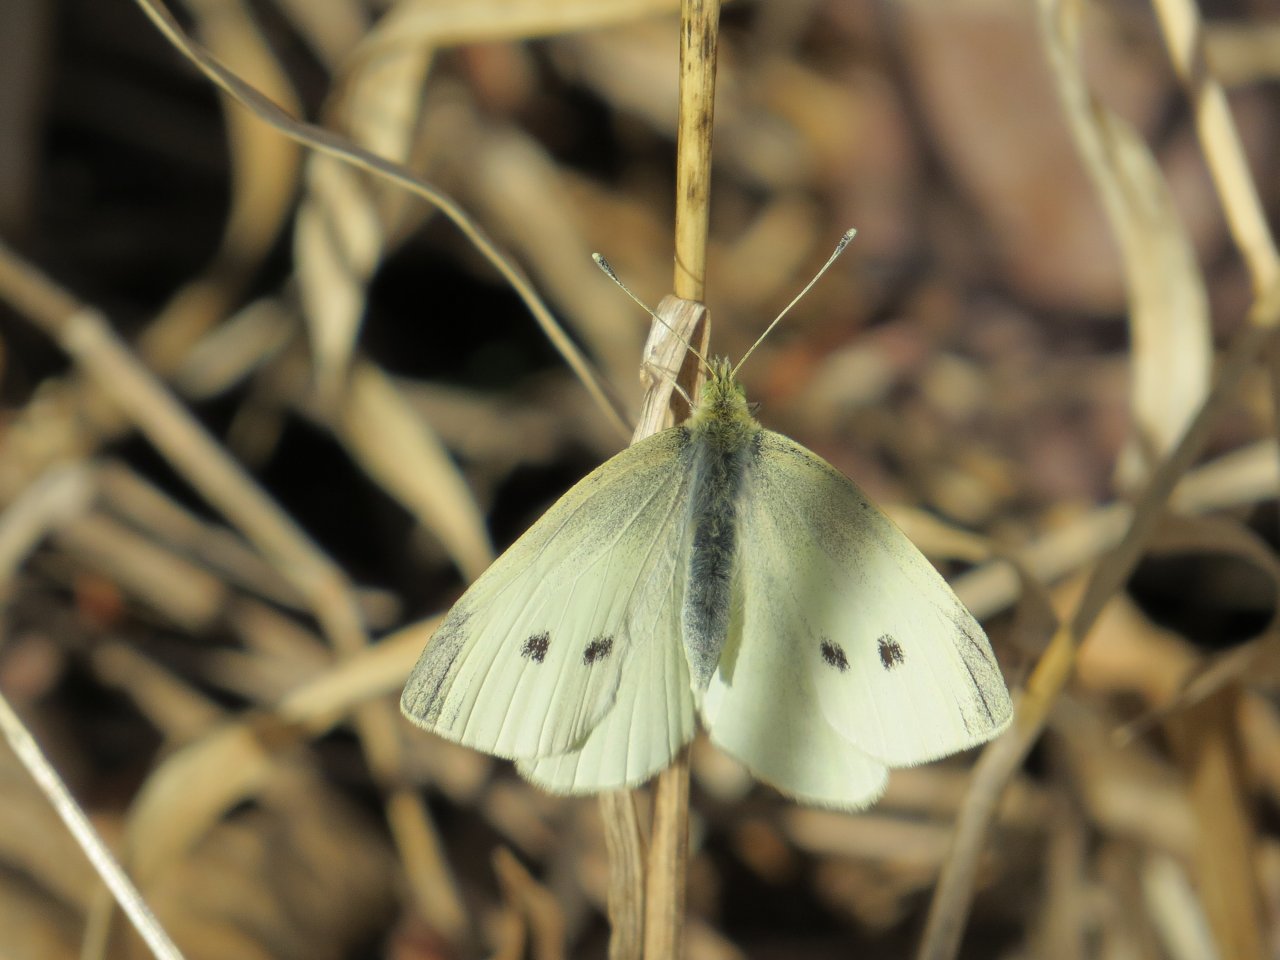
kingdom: Animalia
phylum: Arthropoda
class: Insecta
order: Lepidoptera
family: Pieridae
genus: Pieris
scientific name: Pieris rapae
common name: Cabbage White
